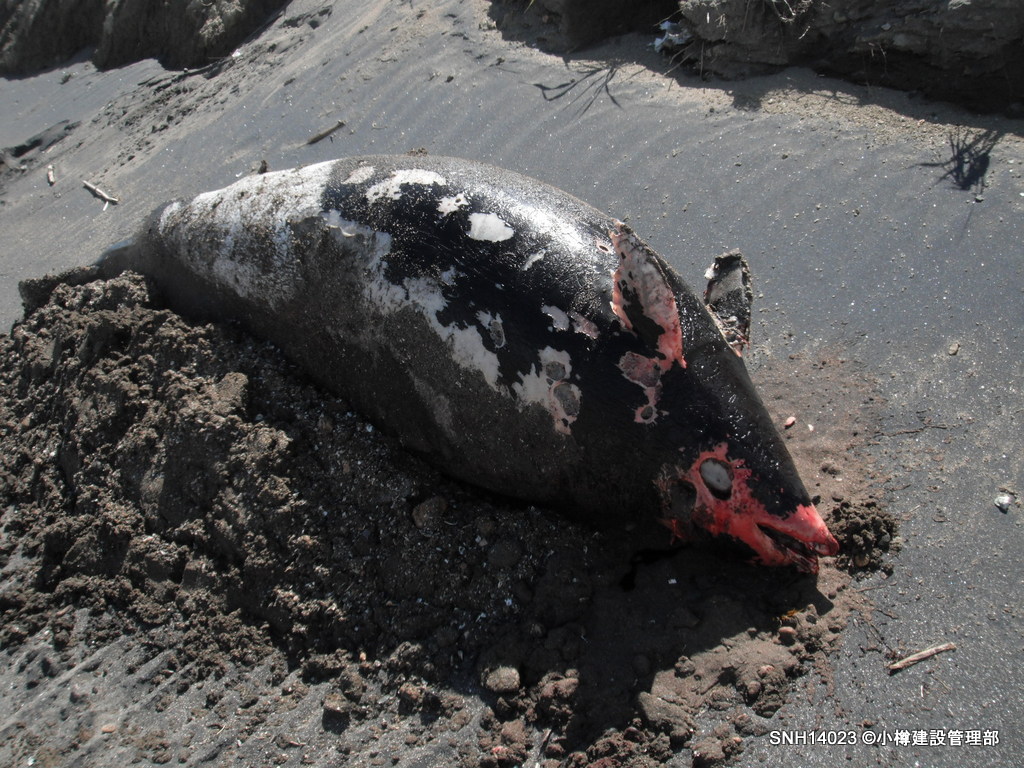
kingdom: Animalia
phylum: Chordata
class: Mammalia
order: Cetacea
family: Phocoenidae
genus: Phocoenoides
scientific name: Phocoenoides dalli
